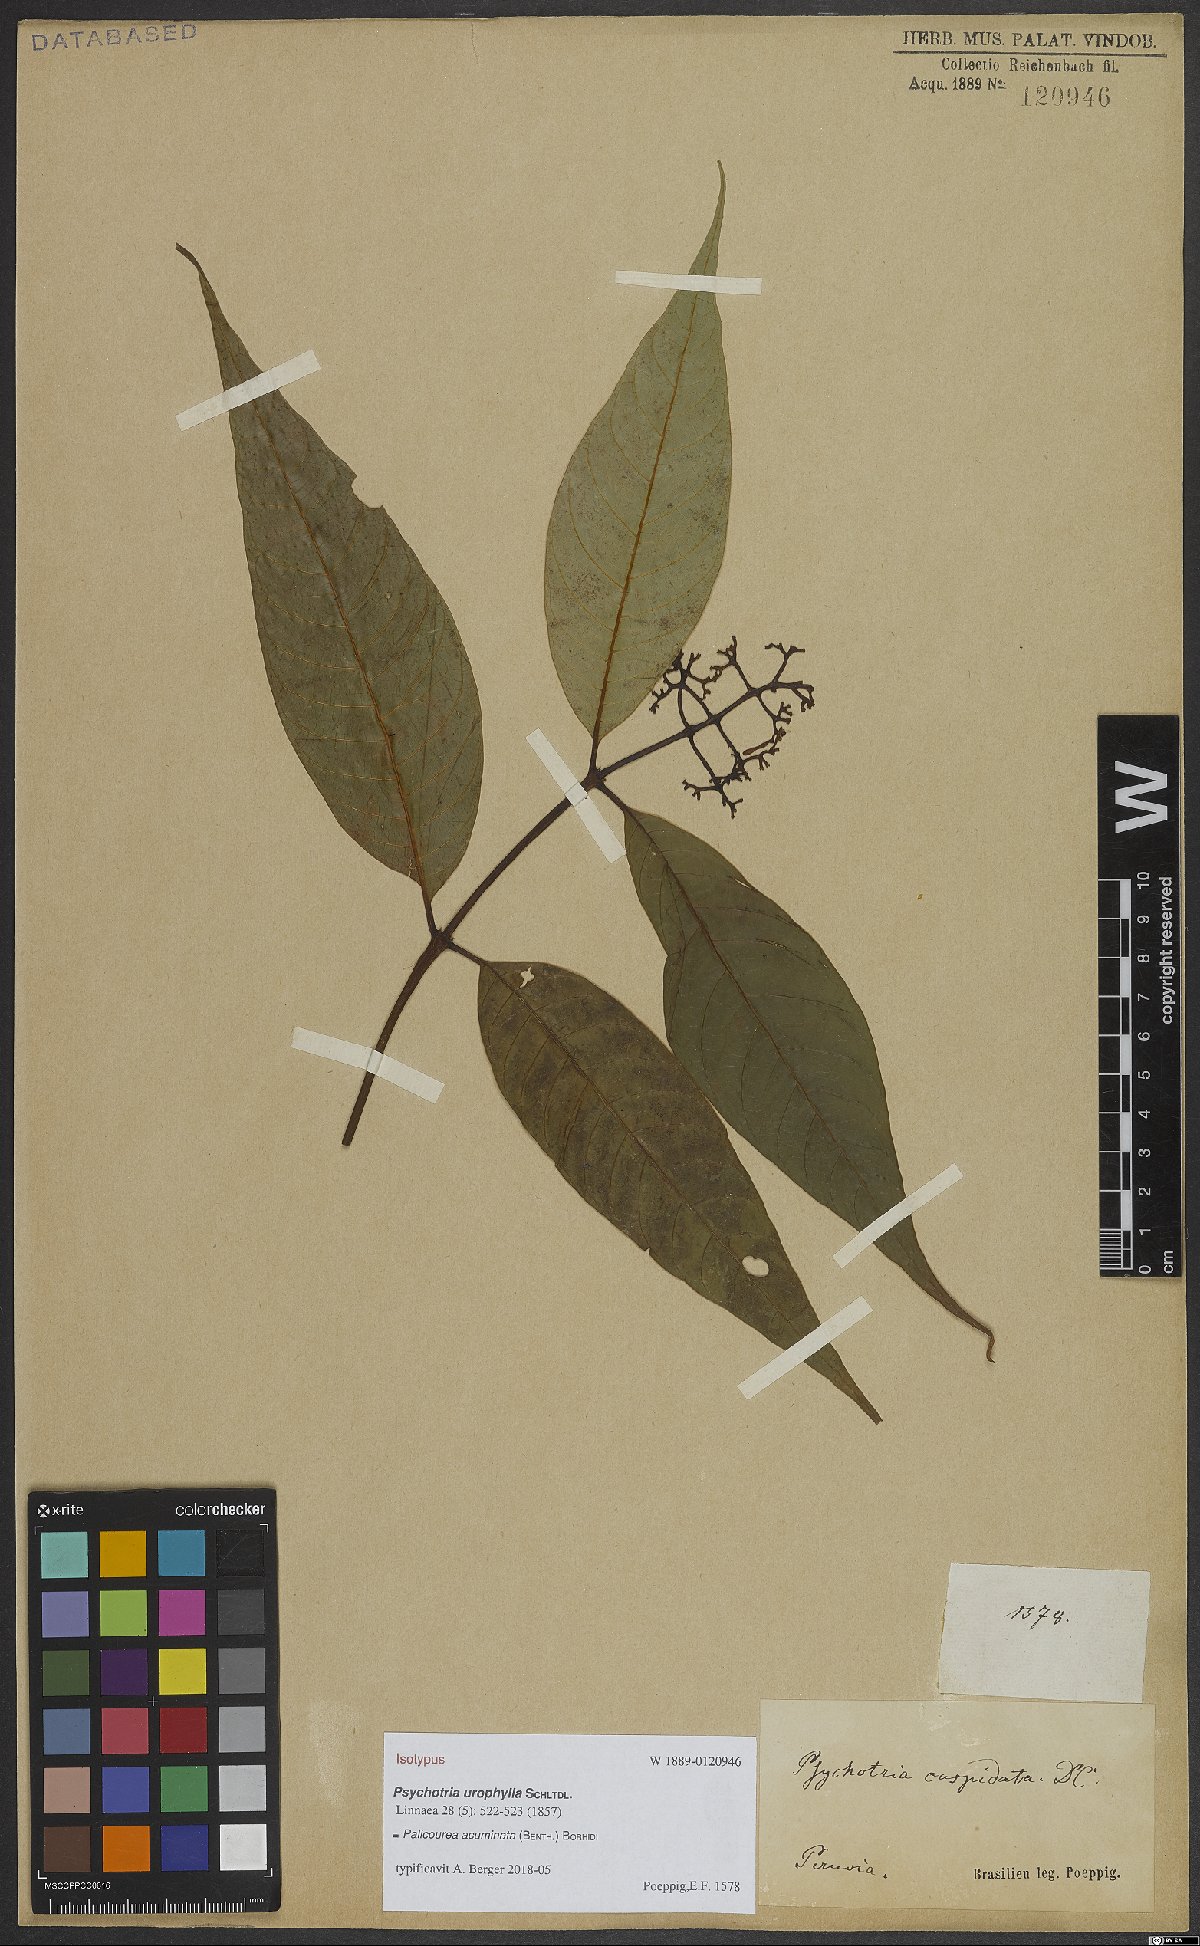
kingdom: Plantae
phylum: Tracheophyta
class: Magnoliopsida
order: Gentianales
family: Rubiaceae
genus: Palicourea
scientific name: Palicourea acuminata
